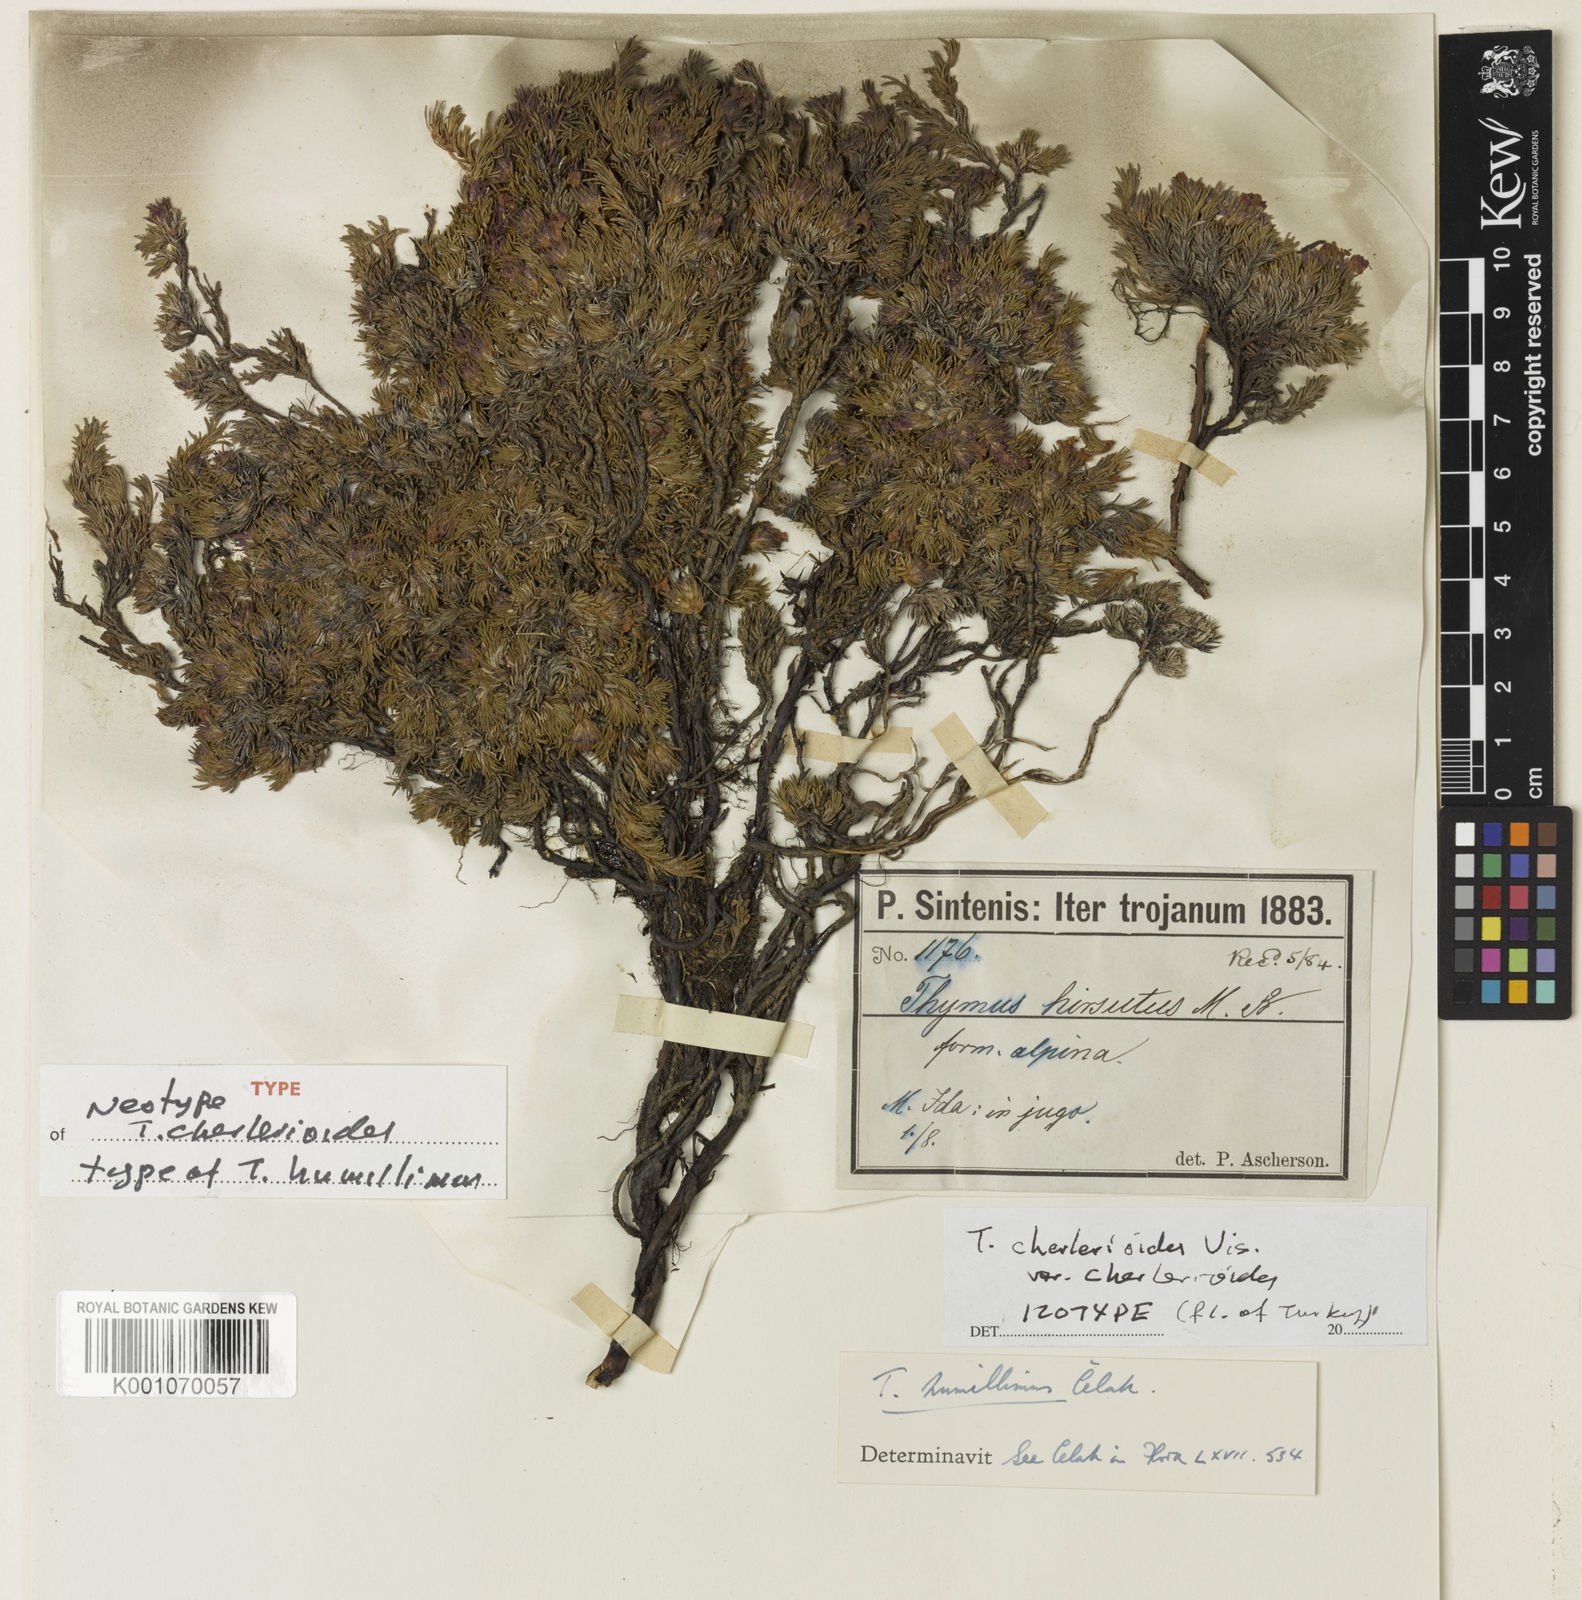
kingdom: Plantae
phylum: Tracheophyta
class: Magnoliopsida
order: Lamiales
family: Lamiaceae
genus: Thymus
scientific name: Thymus pannonicus
